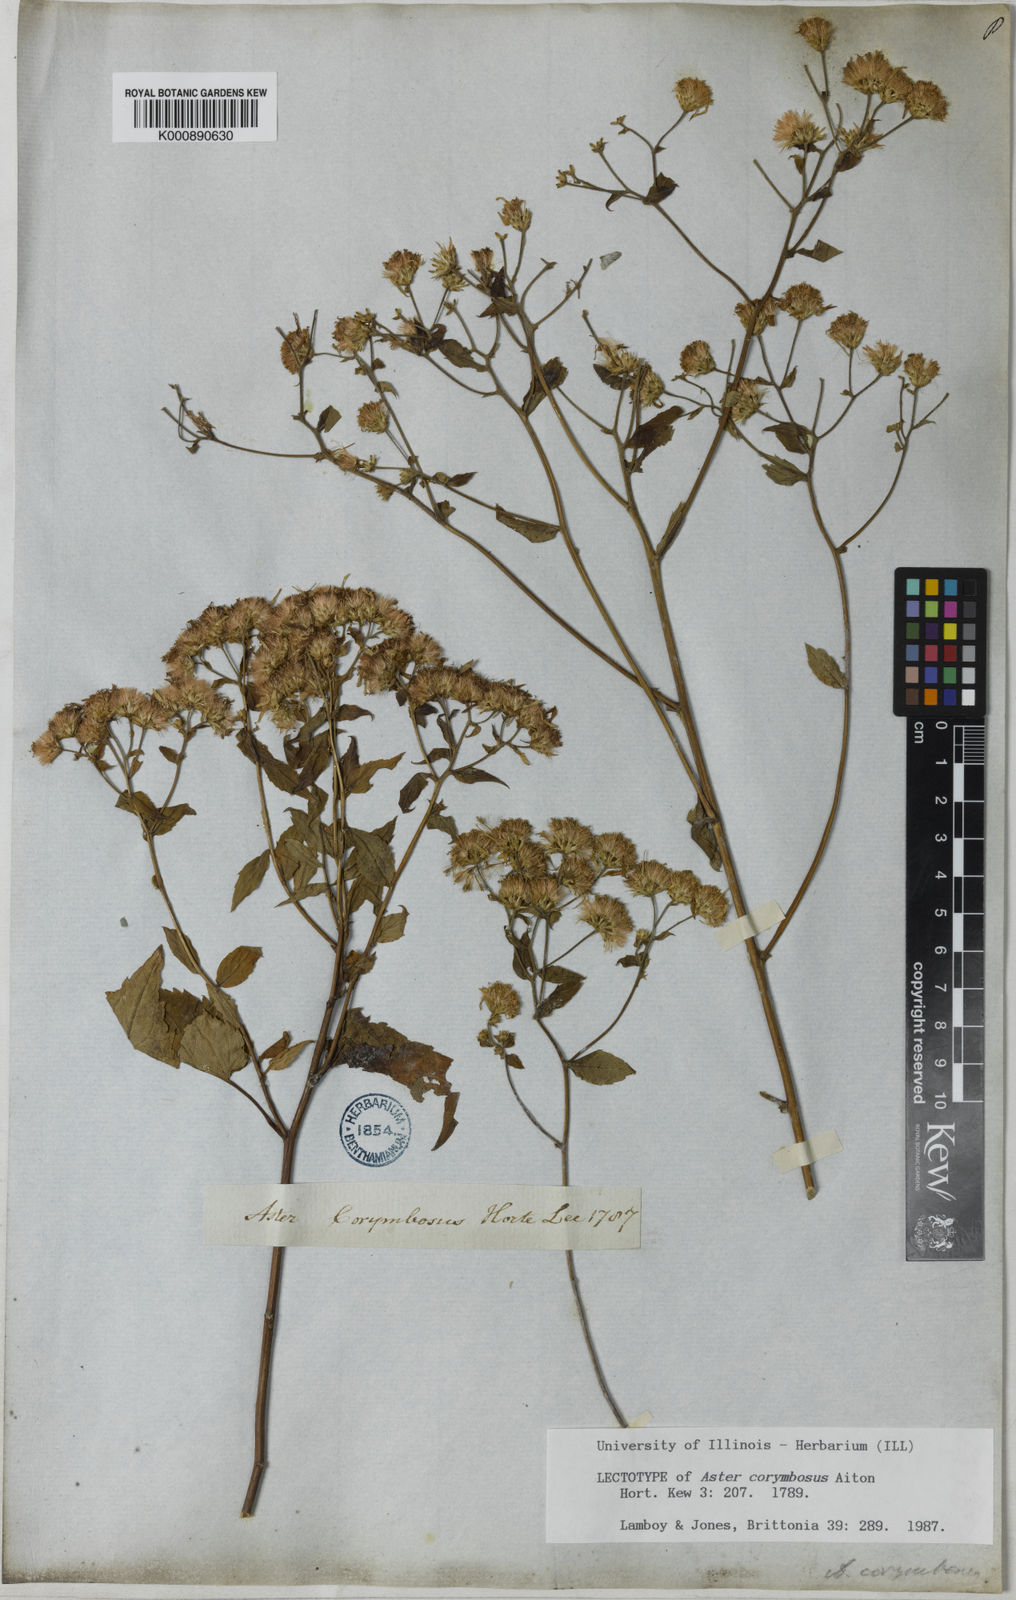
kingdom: Plantae
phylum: Tracheophyta
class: Magnoliopsida
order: Asterales
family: Asteraceae
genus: Aster
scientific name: Aster
